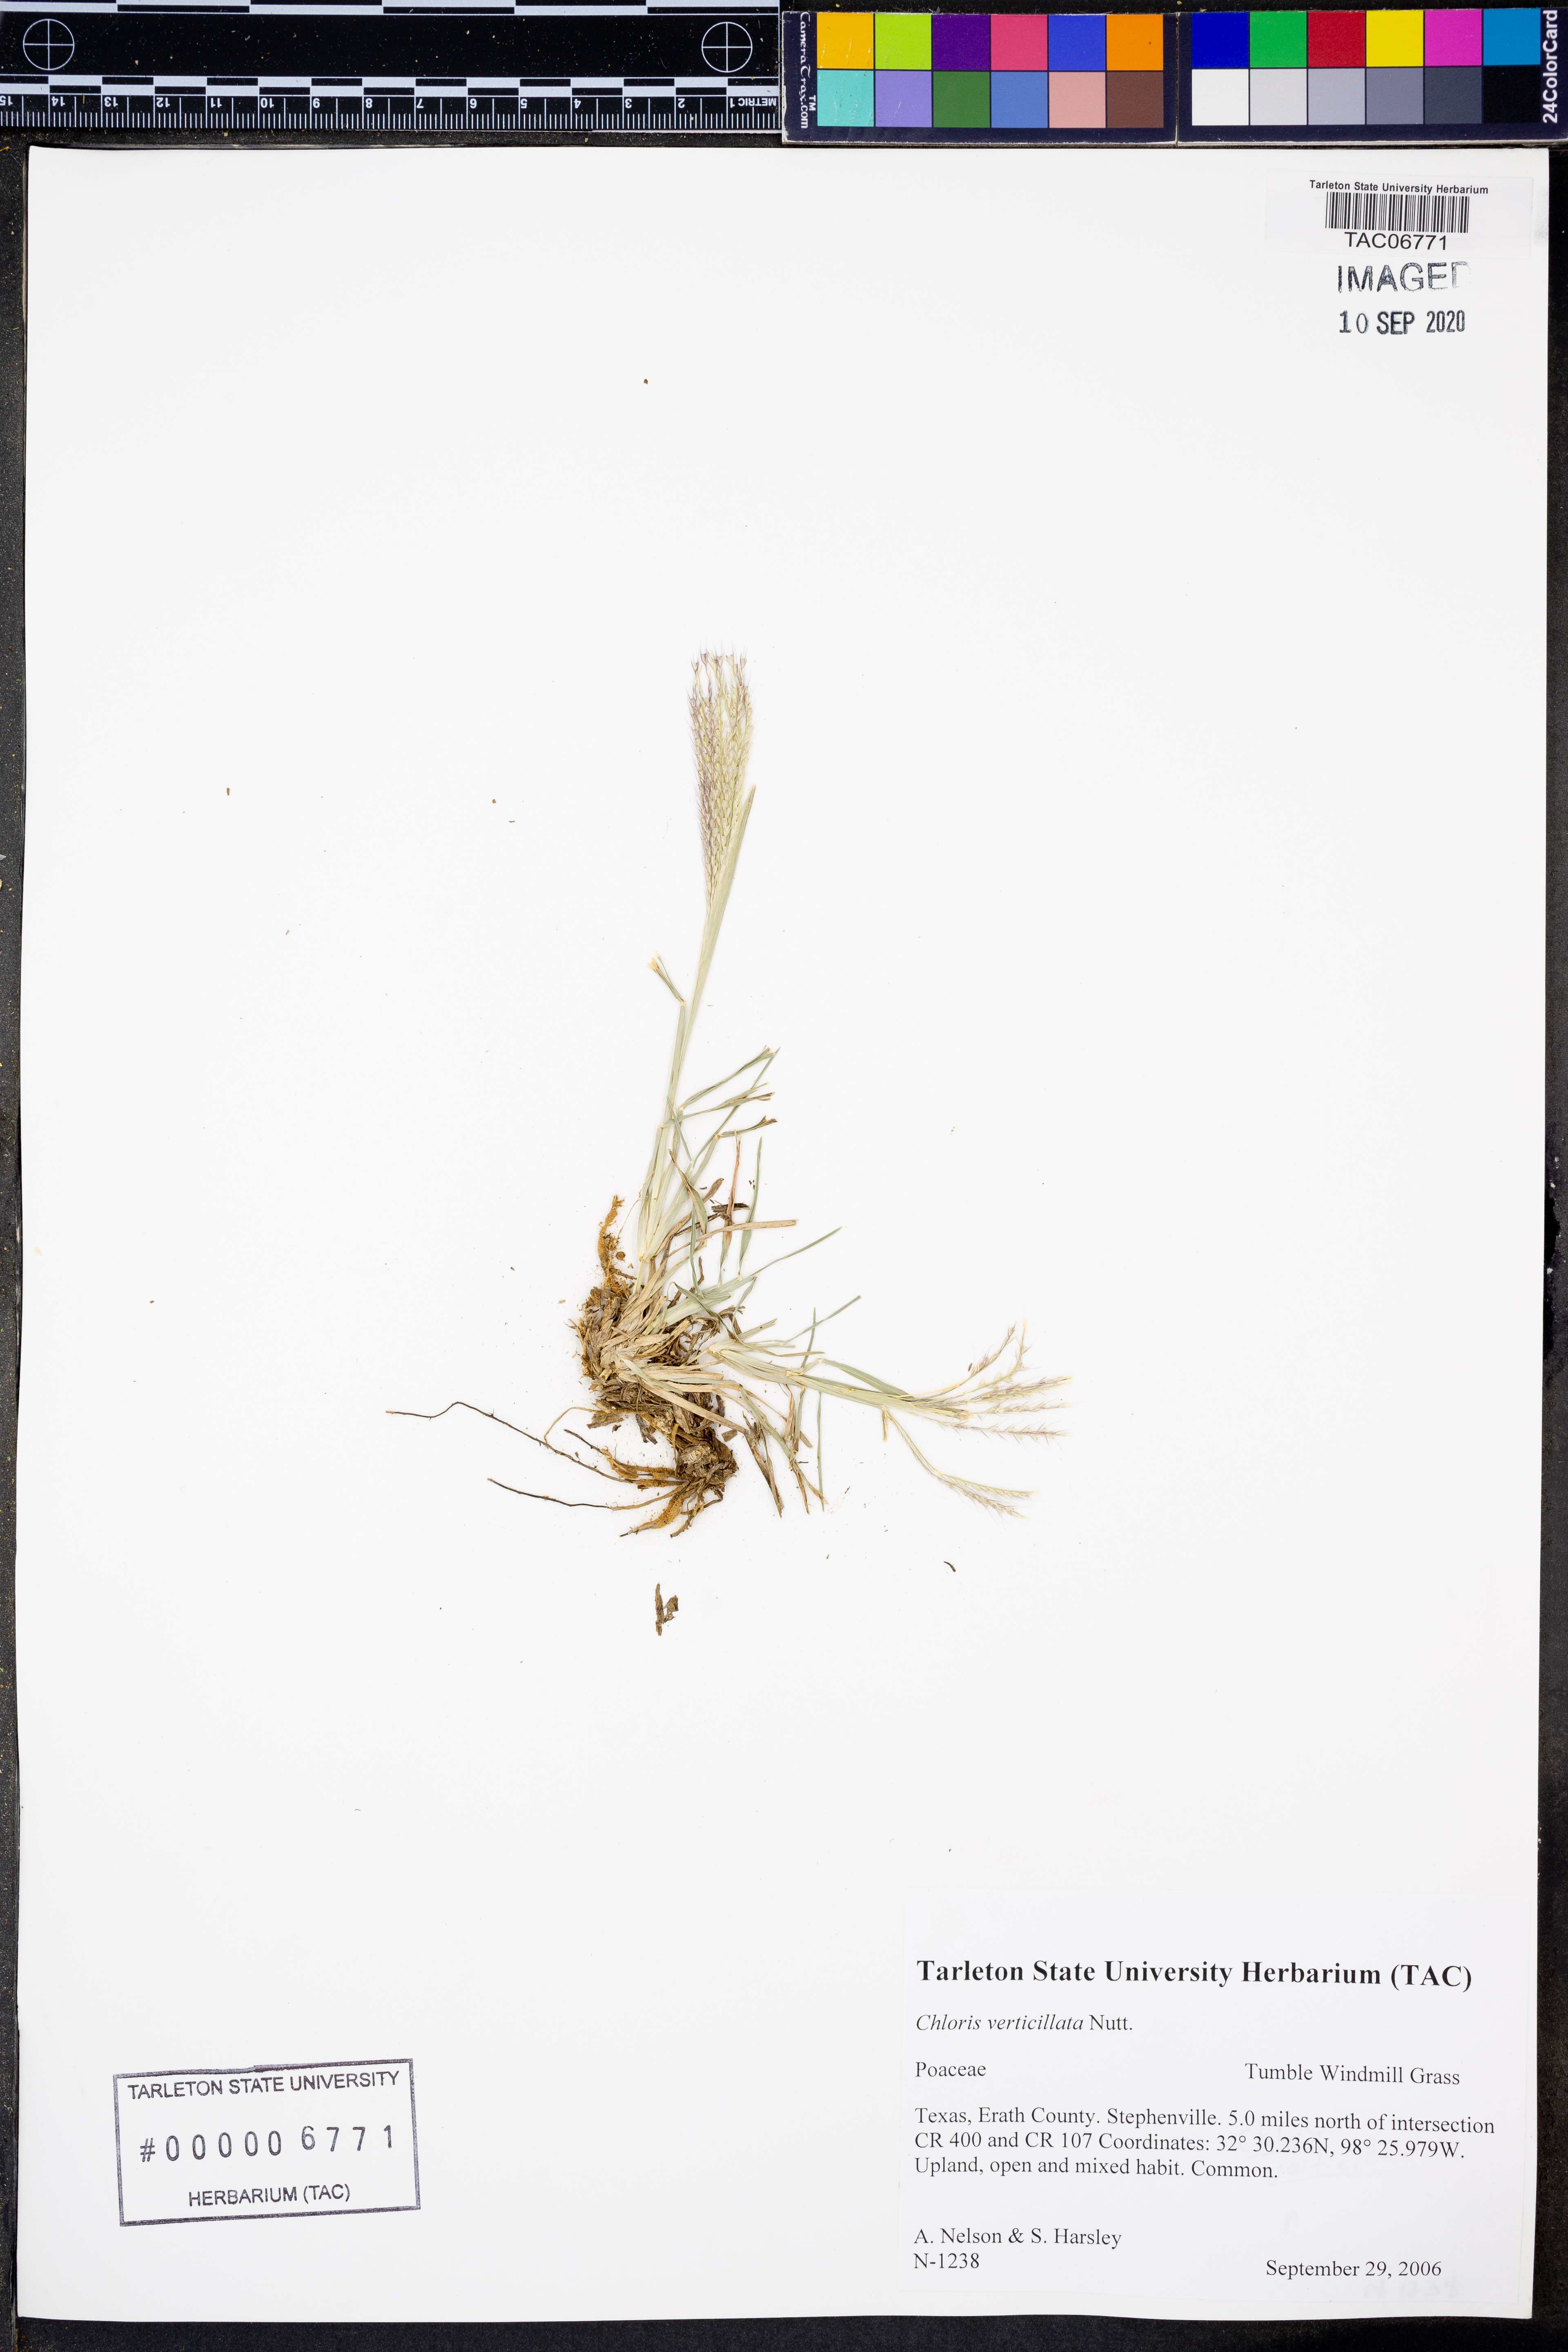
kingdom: Plantae
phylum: Tracheophyta
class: Liliopsida
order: Poales
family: Poaceae
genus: Chloris
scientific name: Chloris verticillata
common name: Tumble windmill grass
